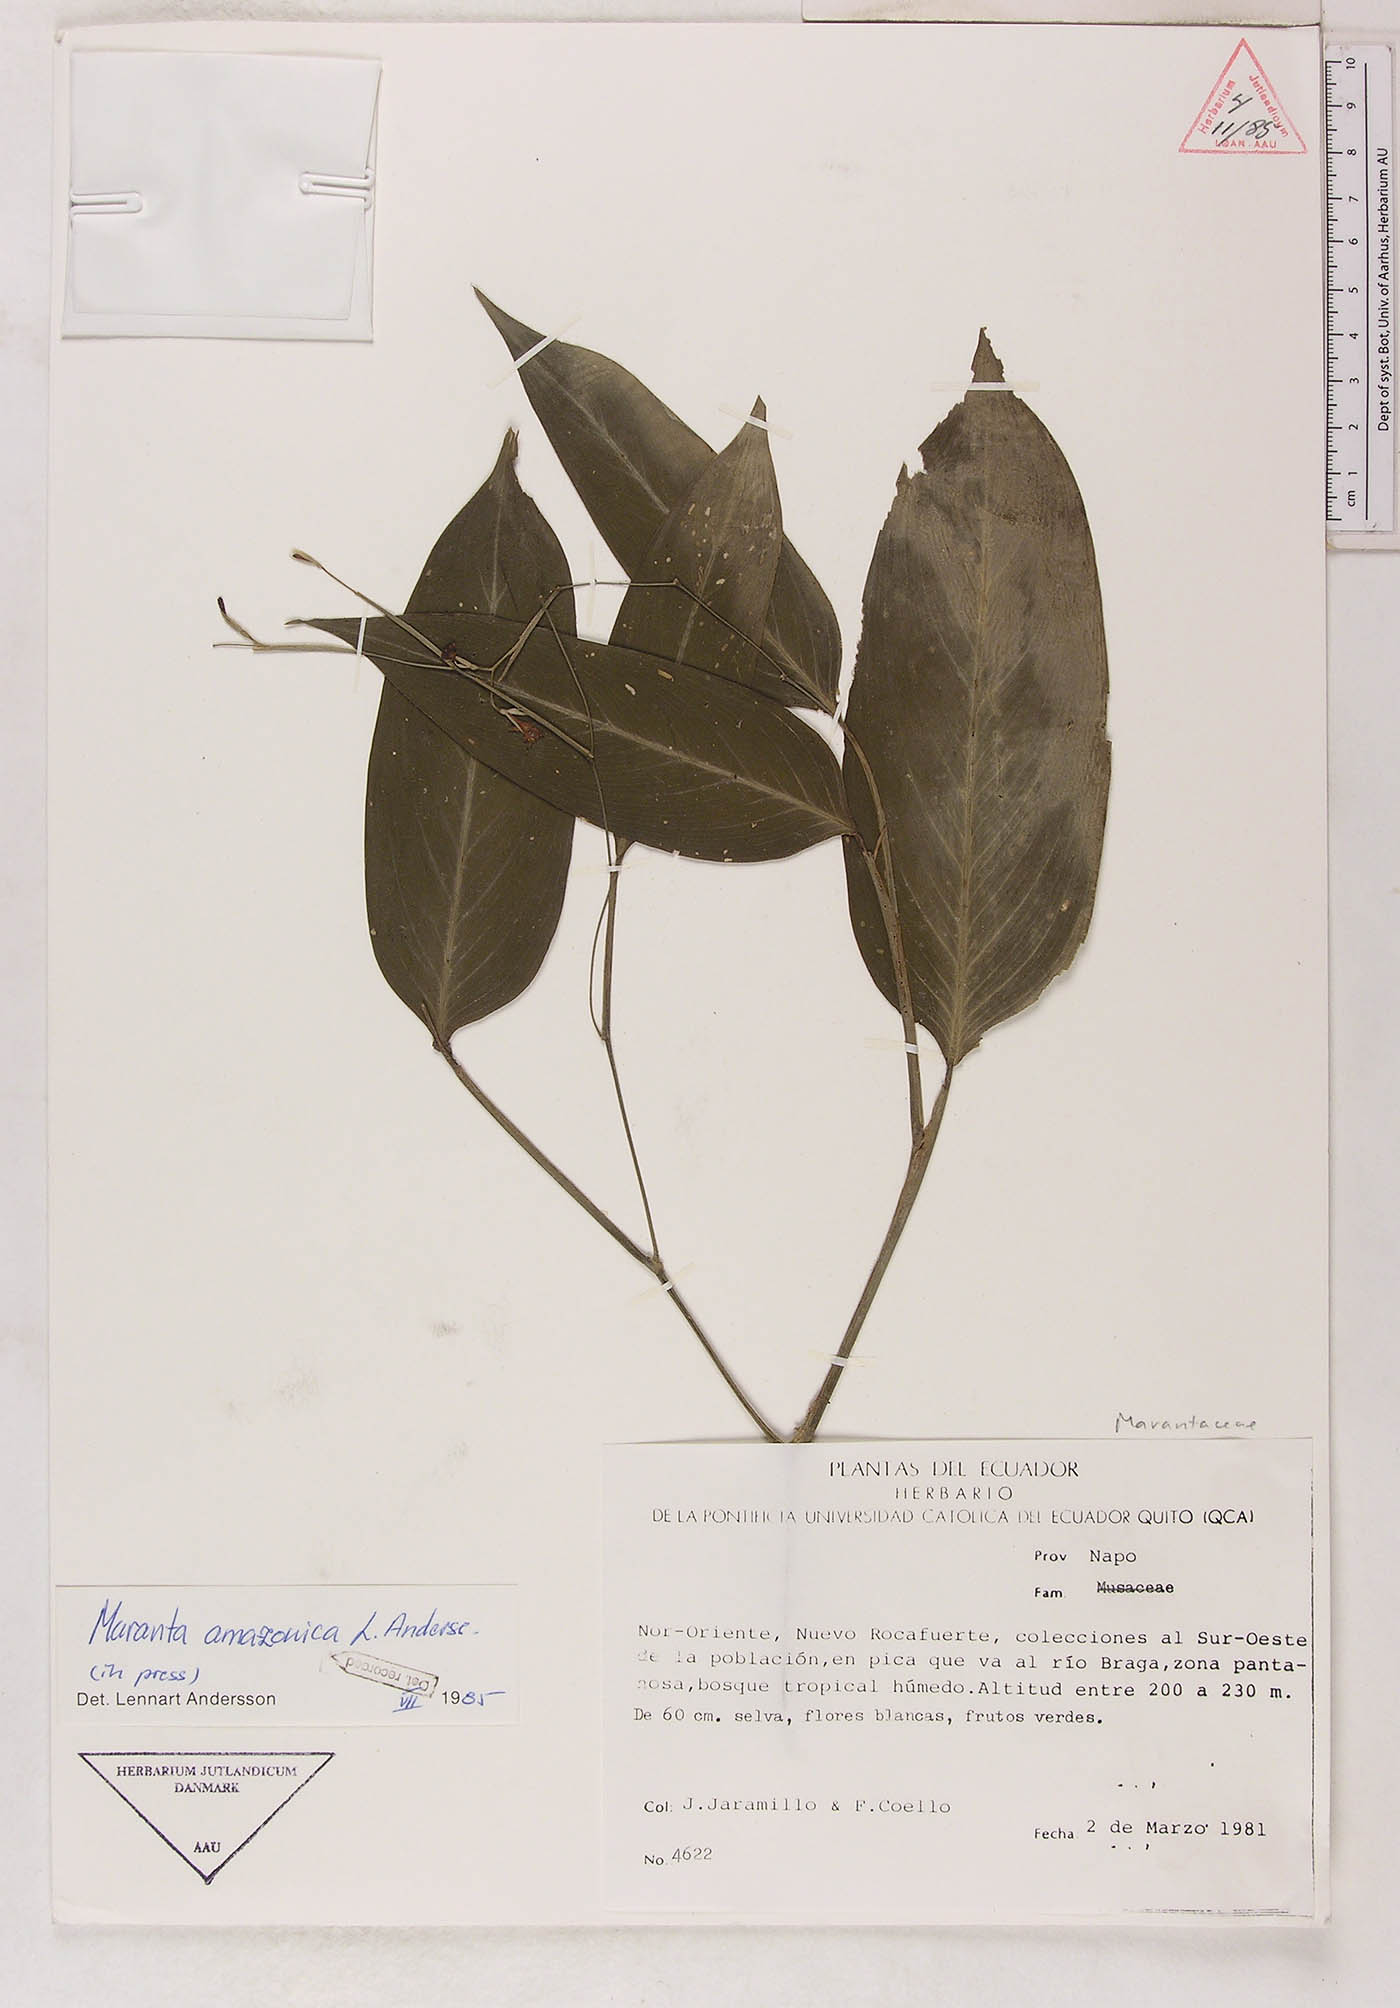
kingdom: Plantae
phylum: Tracheophyta
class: Liliopsida
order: Zingiberales
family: Marantaceae
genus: Maranta
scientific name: Maranta amazonica
